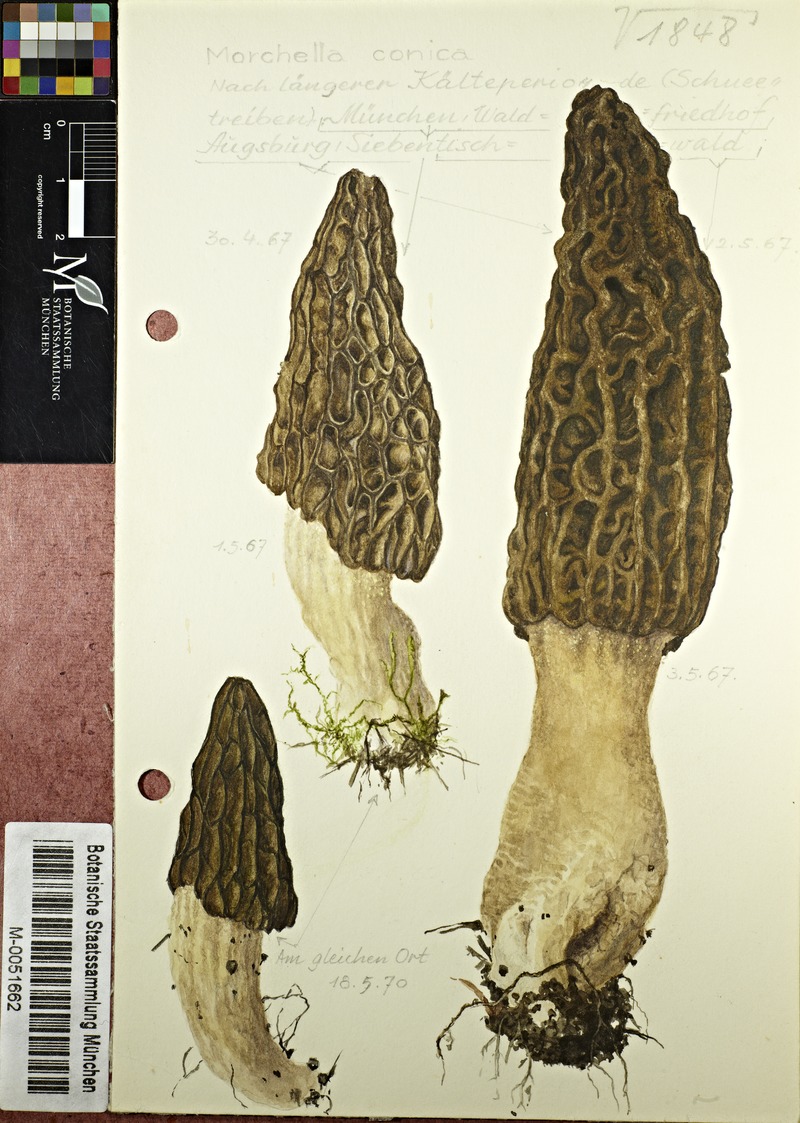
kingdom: Fungi
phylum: Ascomycota
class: Pezizomycetes
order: Pezizales
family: Morchellaceae
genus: Morchella
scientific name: Morchella esculenta
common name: Morel
